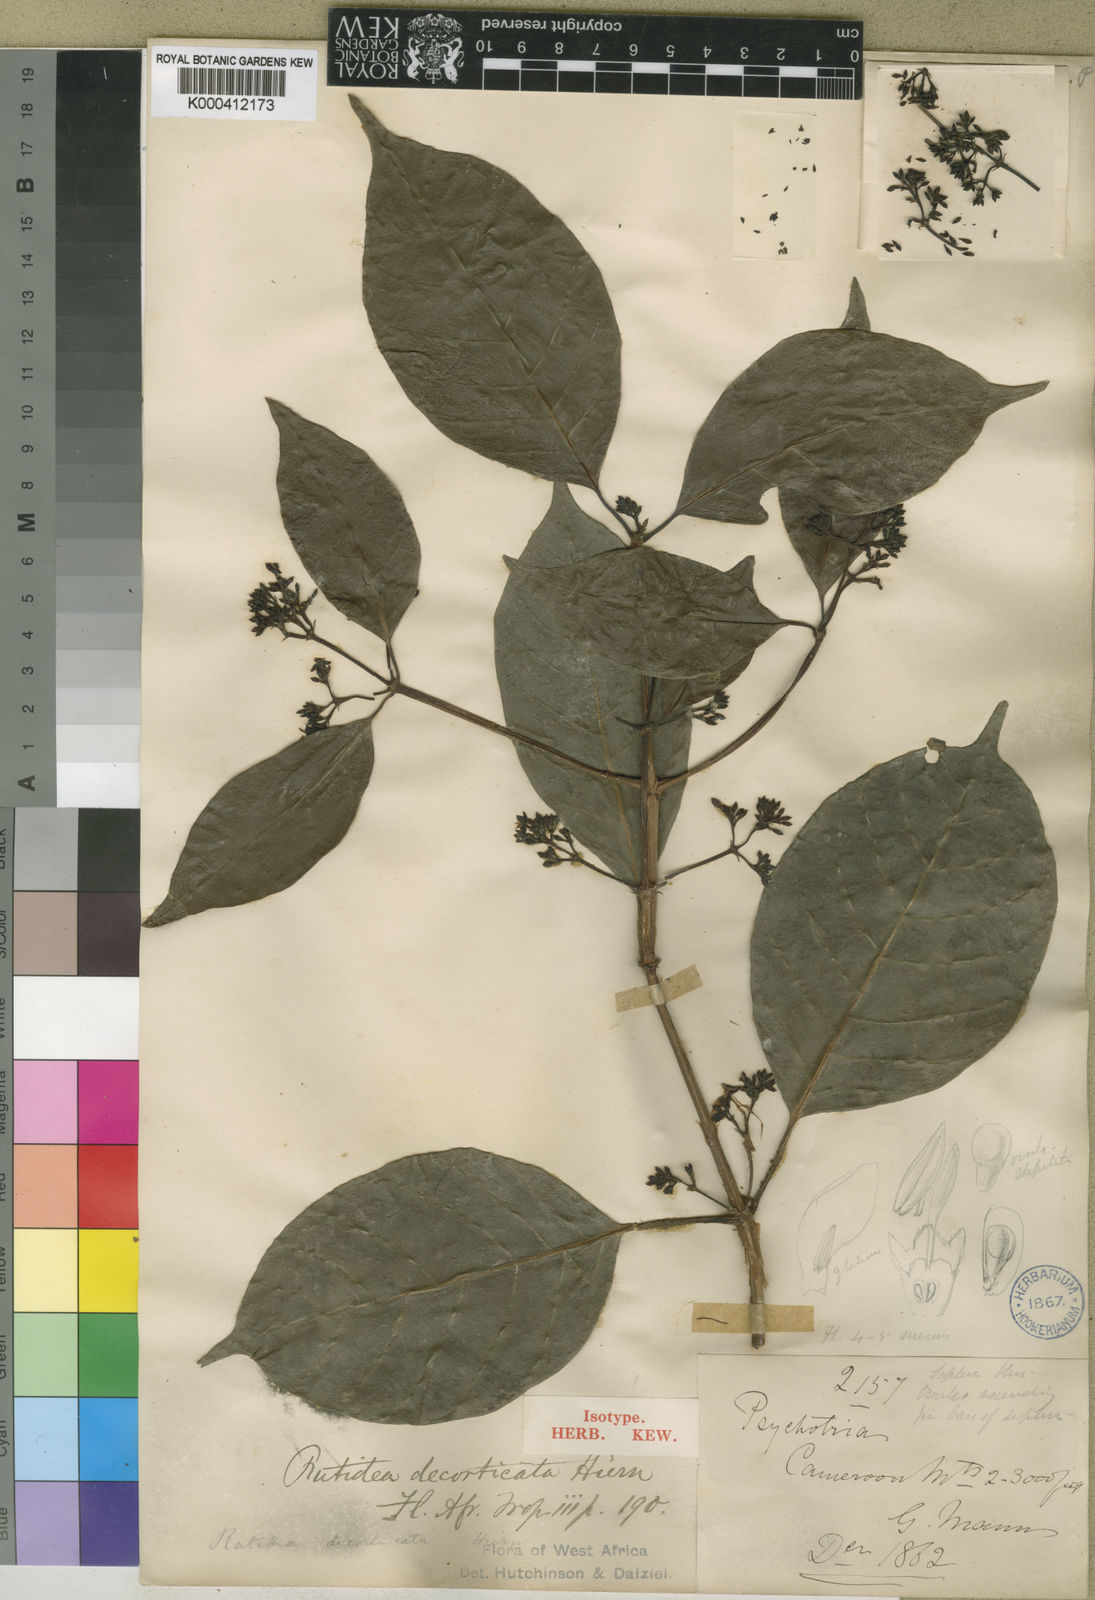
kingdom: Plantae
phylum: Tracheophyta
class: Magnoliopsida
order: Gentianales
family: Rubiaceae
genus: Rutidea
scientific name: Rutidea decorticata
